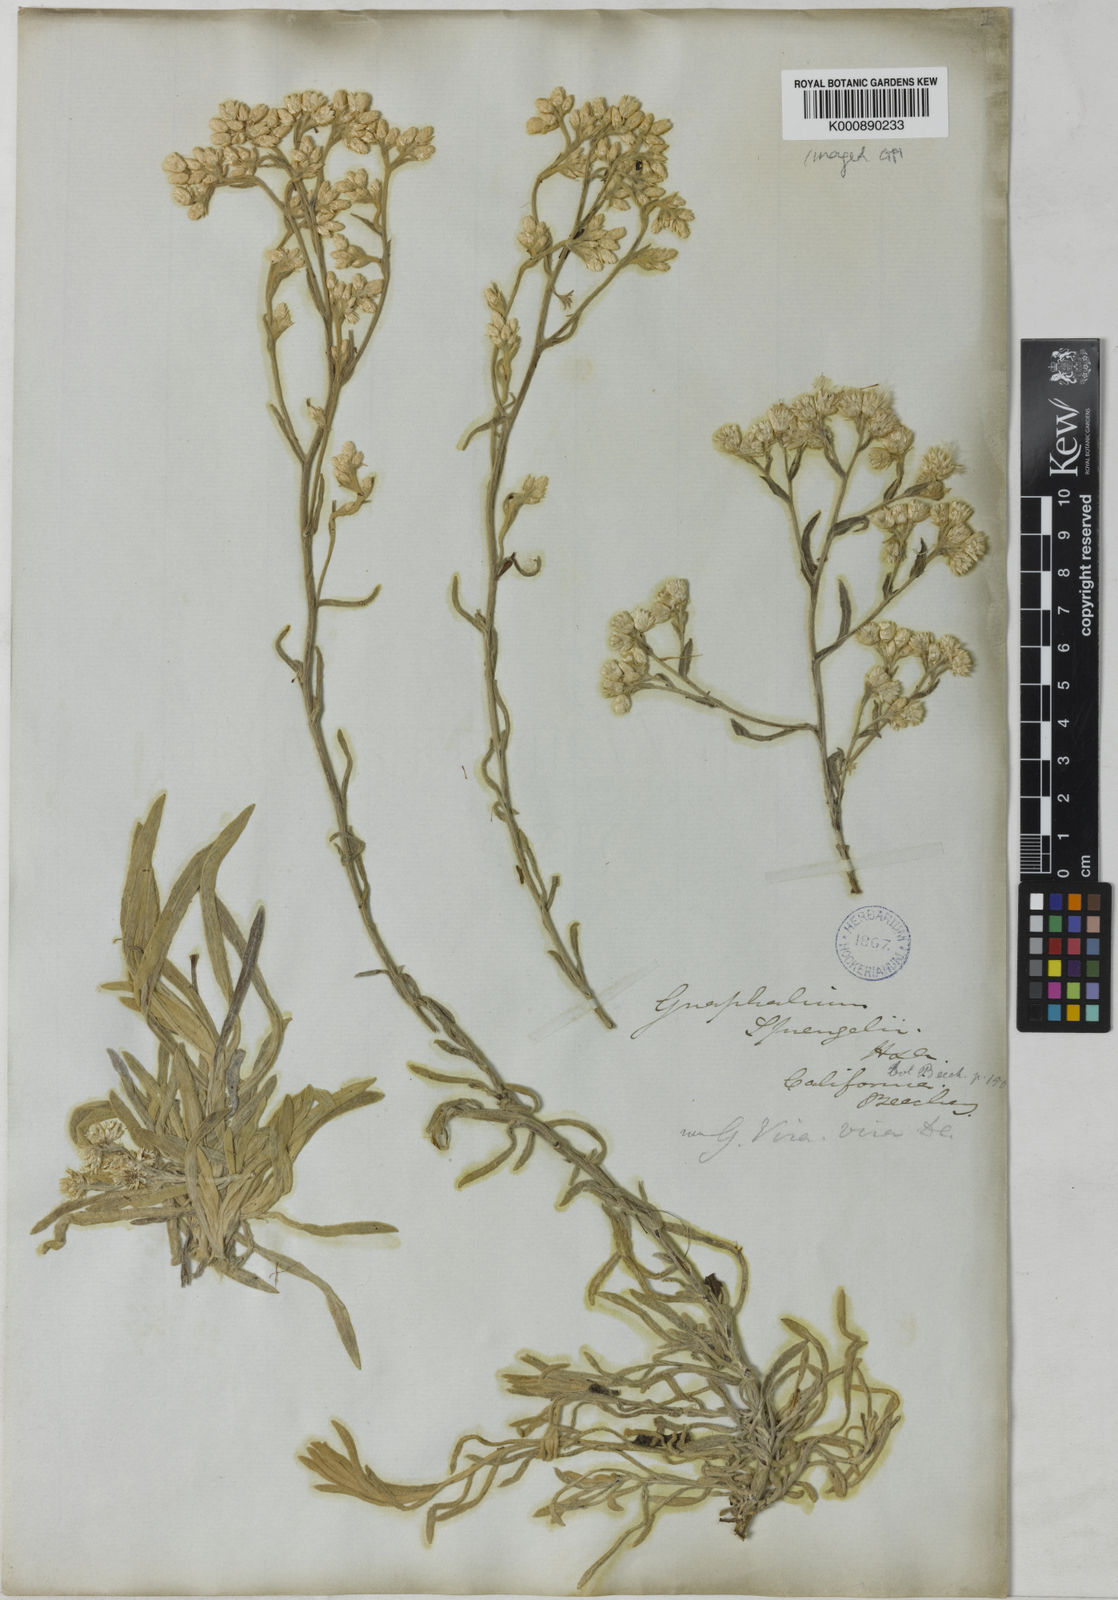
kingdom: Plantae
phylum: Tracheophyta
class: Magnoliopsida
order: Asterales
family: Asteraceae
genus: Pseudognaphalium
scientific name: Pseudognaphalium montevidense
